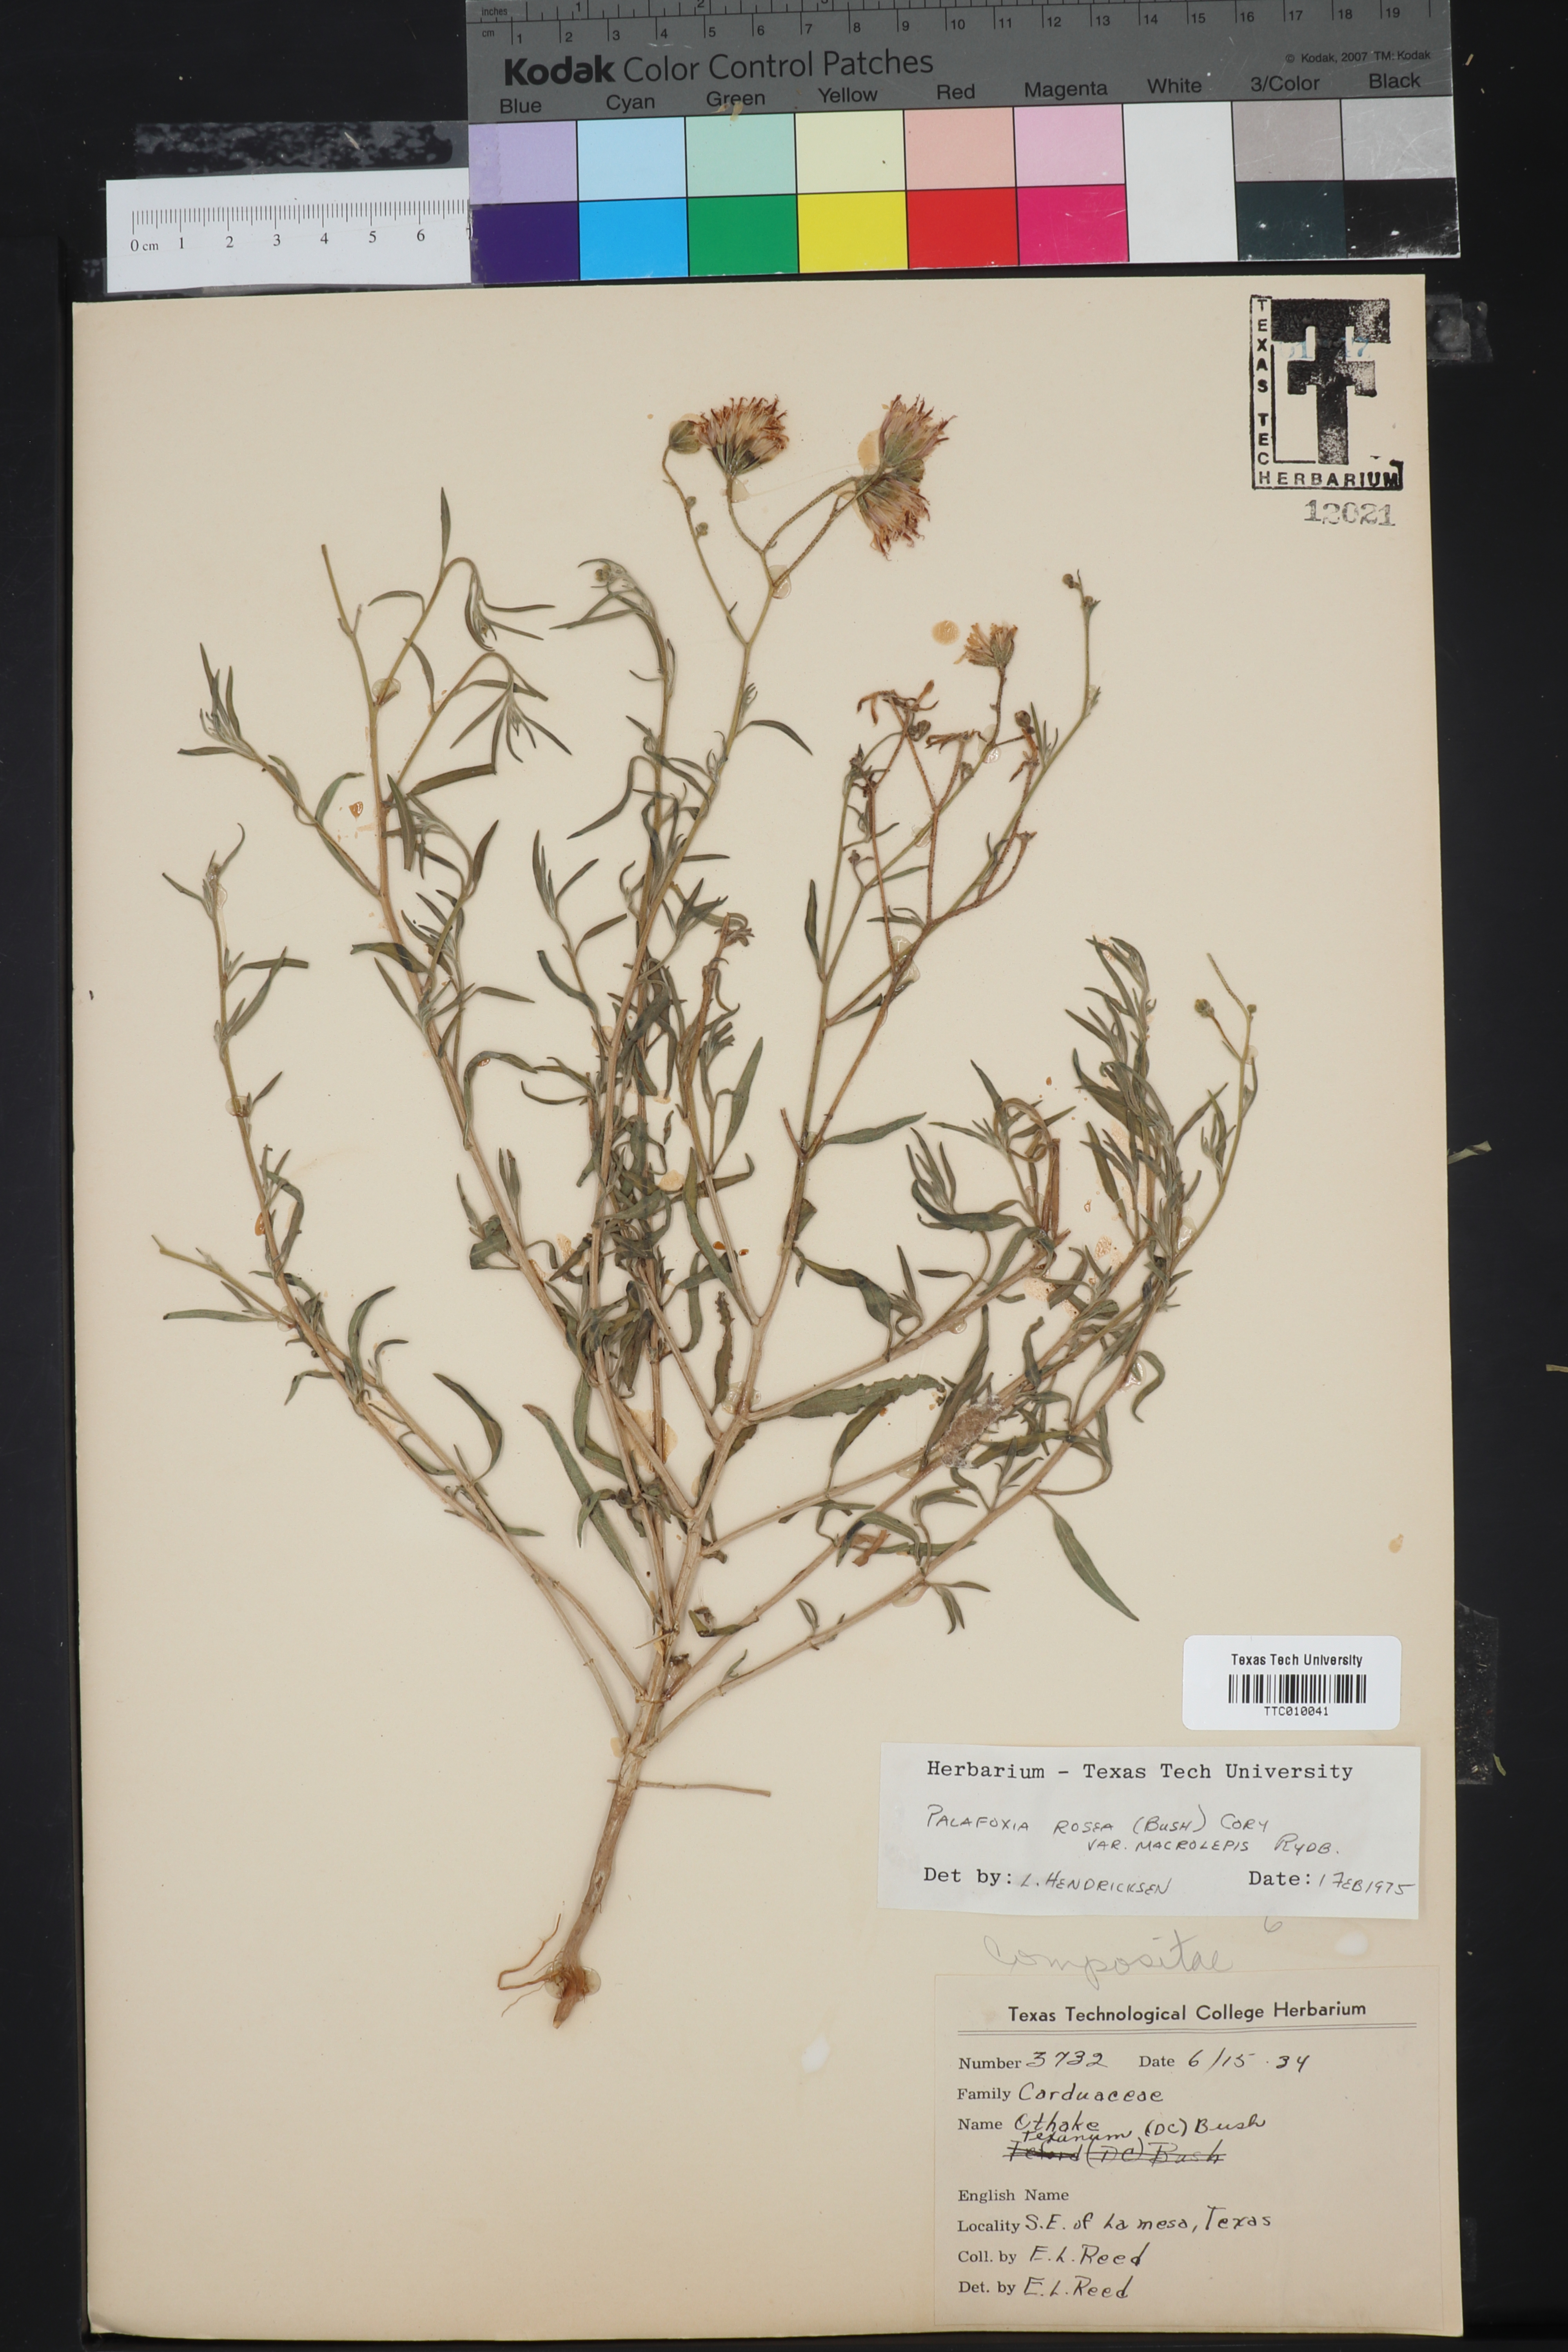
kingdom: Plantae
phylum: Tracheophyta
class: Magnoliopsida
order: Asterales
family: Asteraceae
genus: Palafoxia
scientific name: Palafoxia rosea
